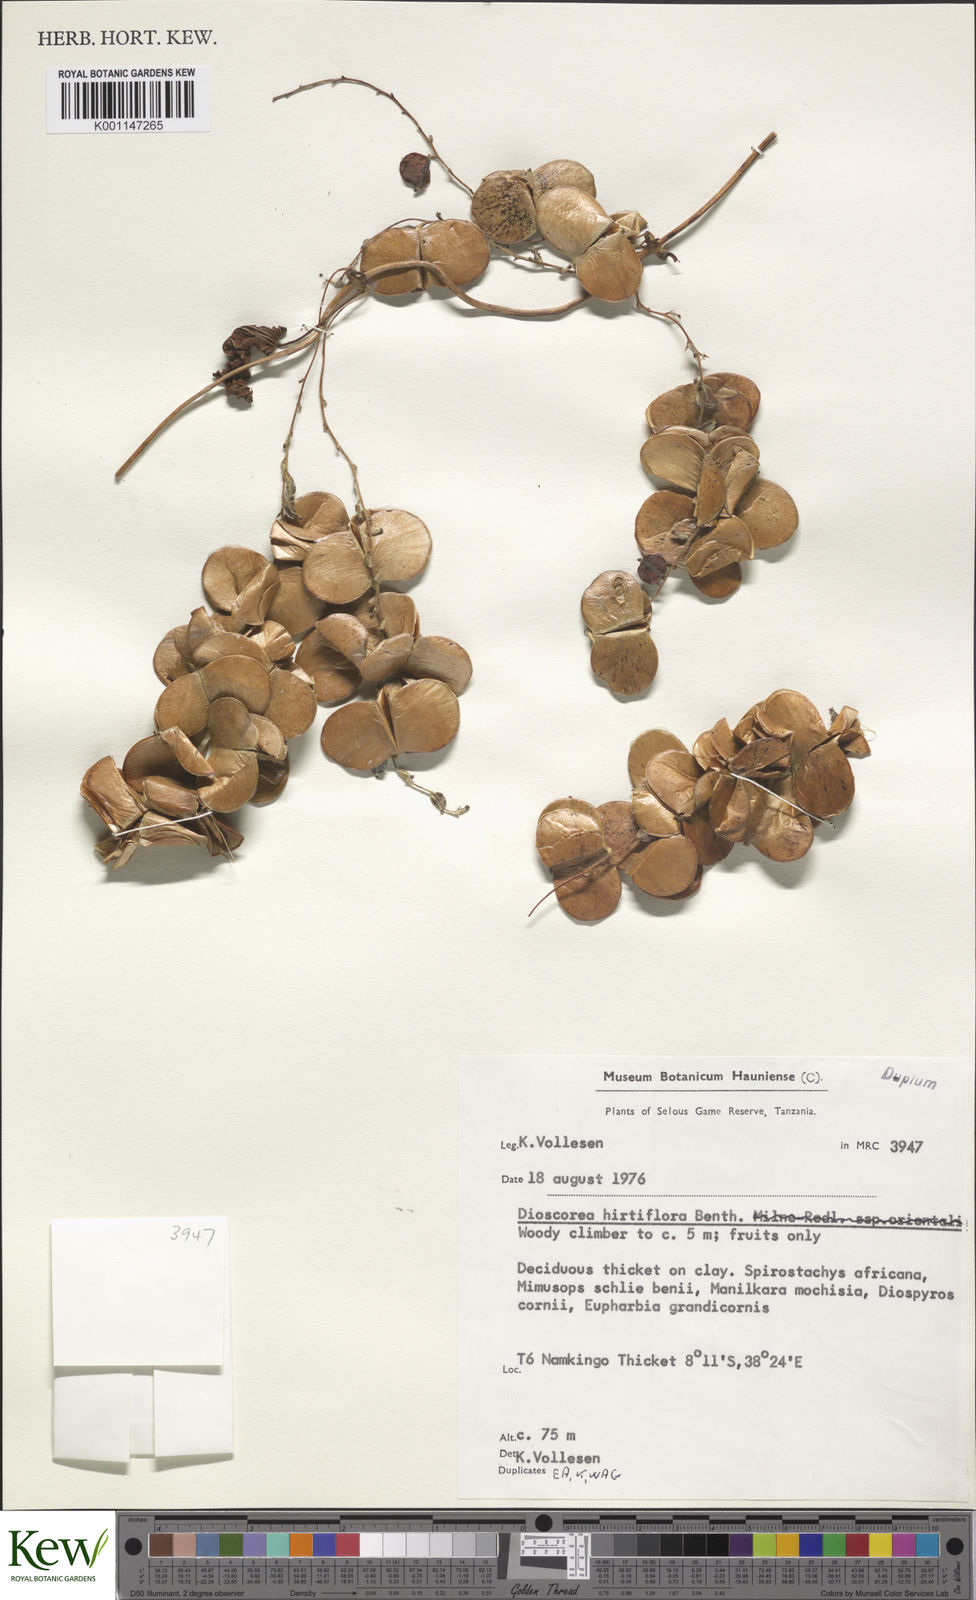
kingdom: Plantae
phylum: Tracheophyta
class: Liliopsida
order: Dioscoreales
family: Dioscoreaceae
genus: Dioscorea
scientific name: Dioscorea hirtiflora
